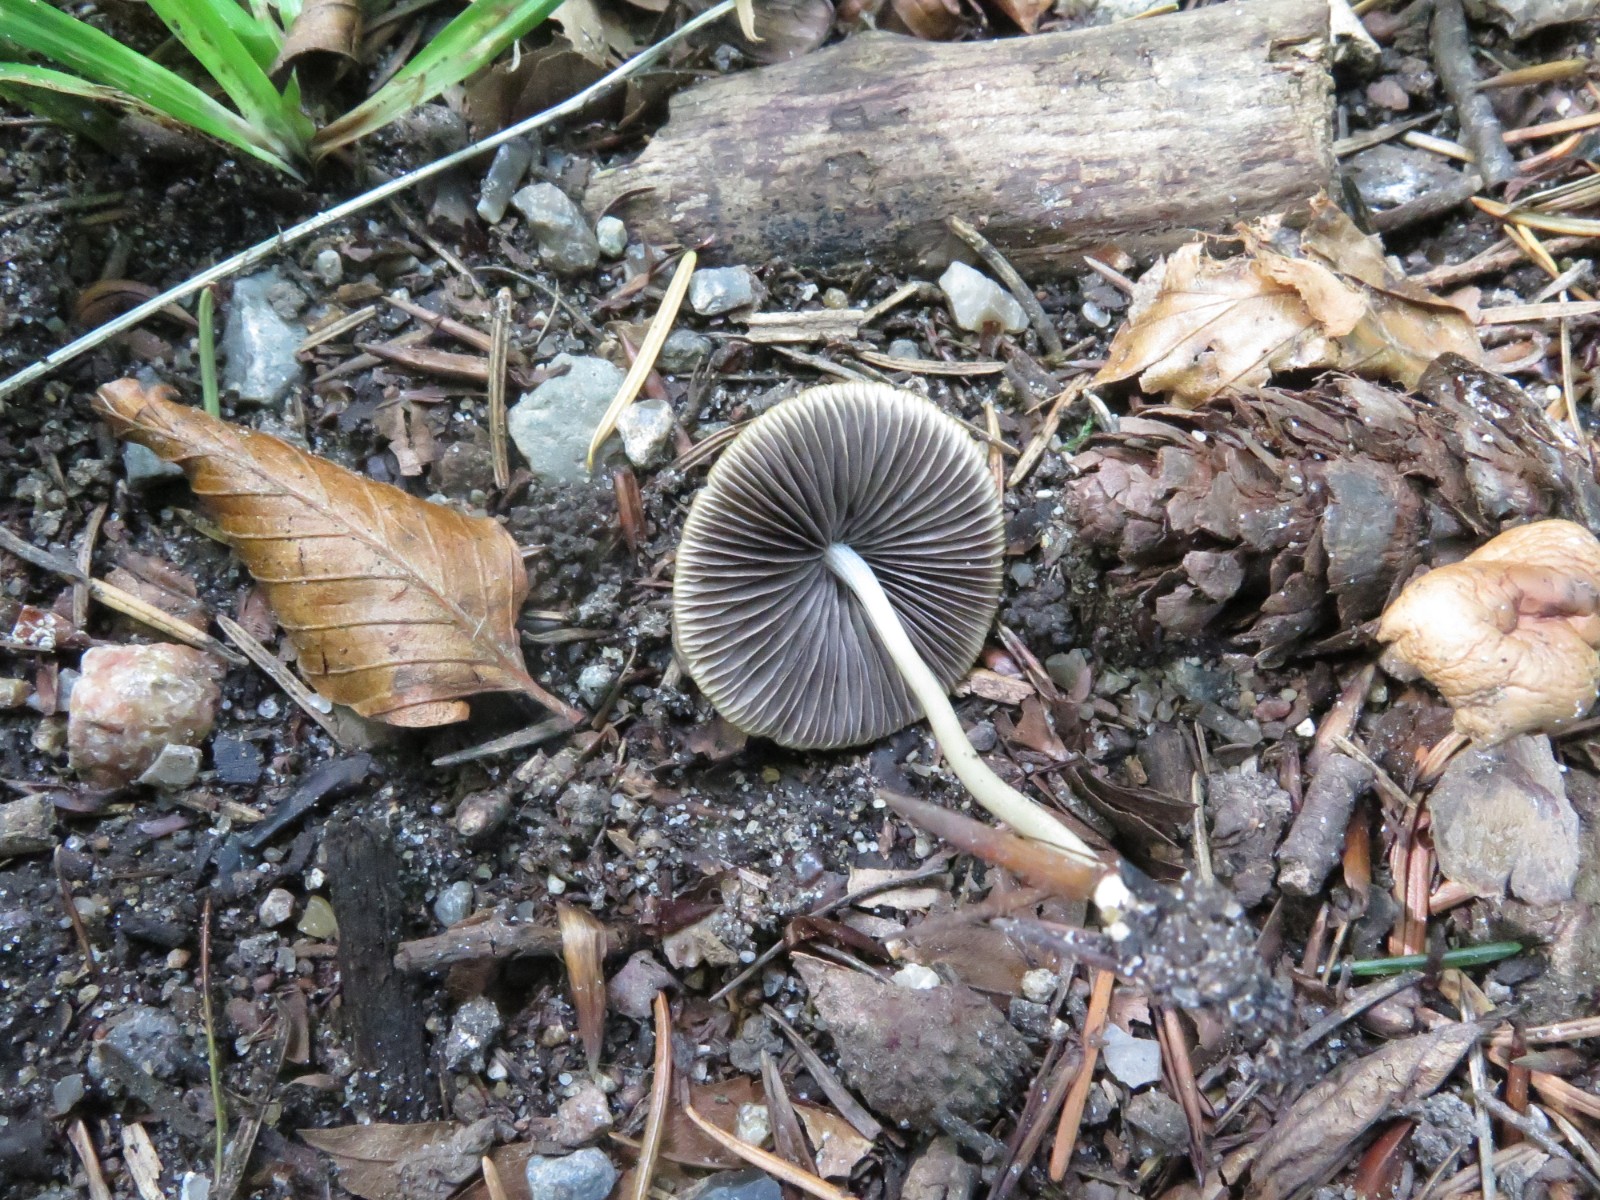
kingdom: Fungi
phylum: Basidiomycota
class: Agaricomycetes
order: Agaricales
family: Psathyrellaceae
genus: Parasola
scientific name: Parasola conopilea
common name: kegle-hjulhat
